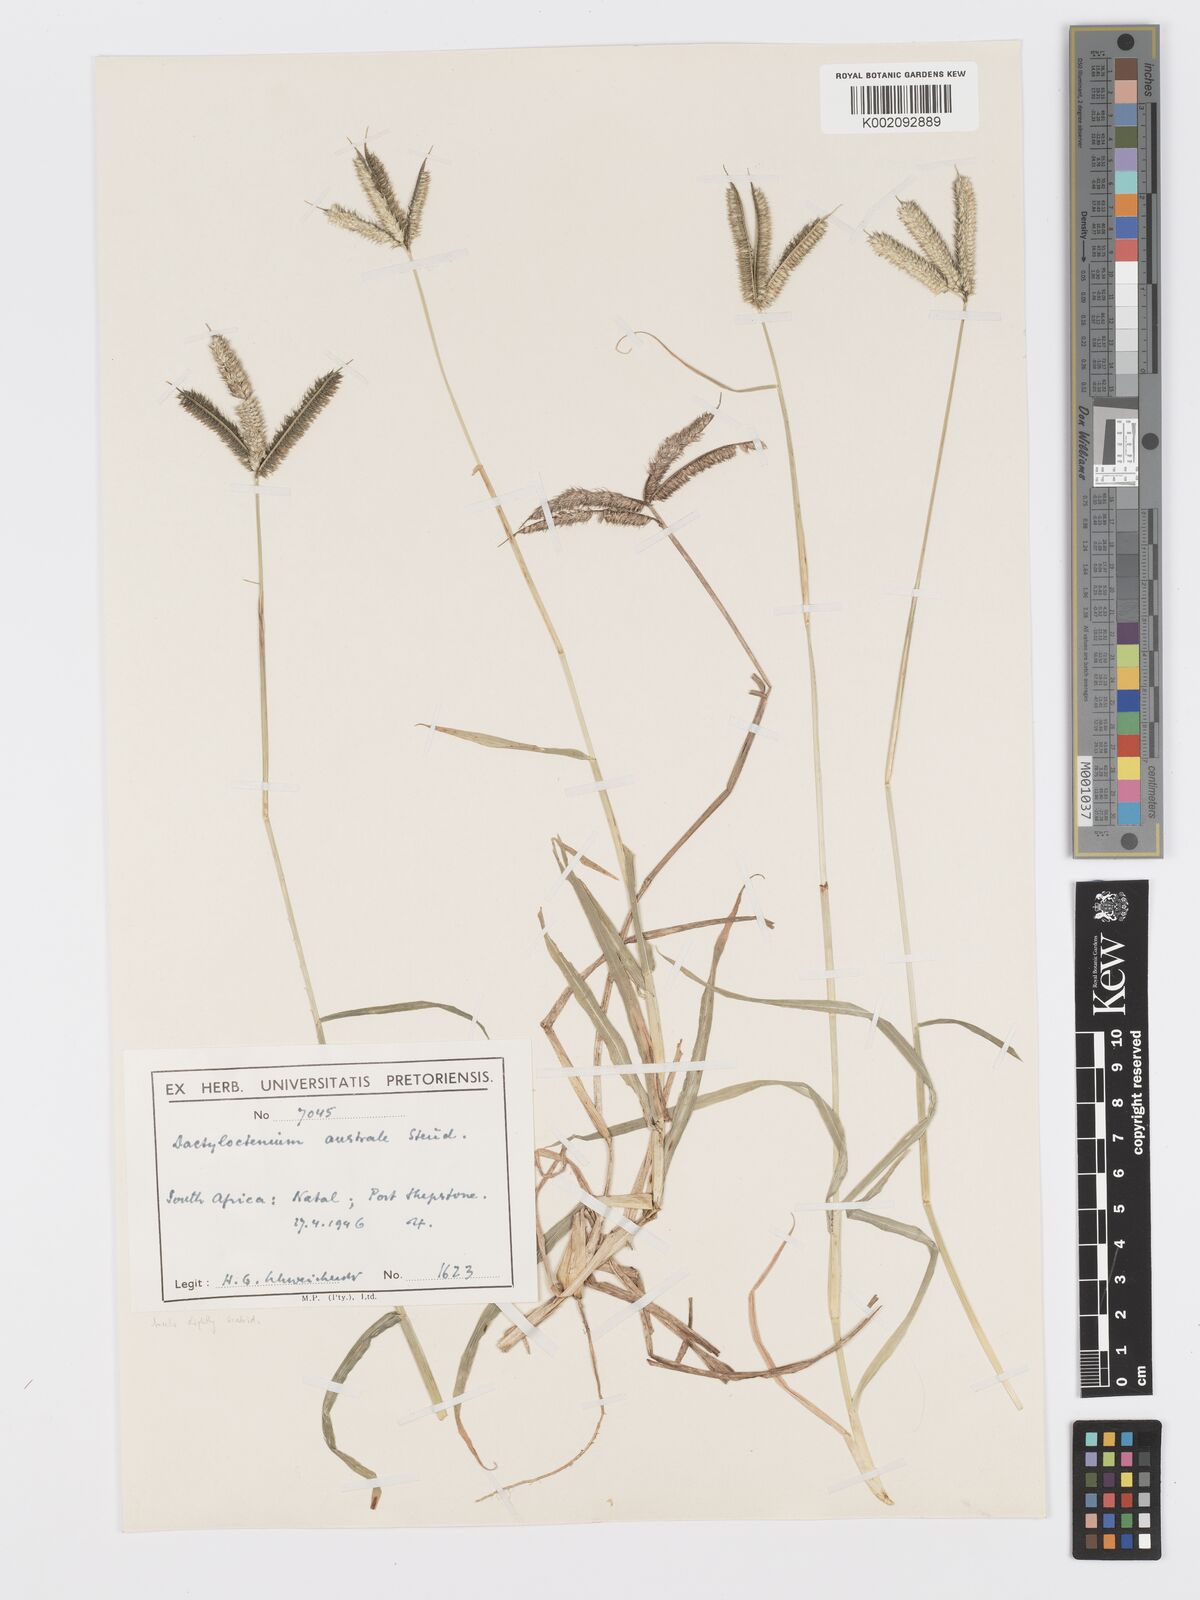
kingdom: Plantae
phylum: Tracheophyta
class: Liliopsida
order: Poales
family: Poaceae
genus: Dactyloctenium
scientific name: Dactyloctenium australe
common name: Durban grass
